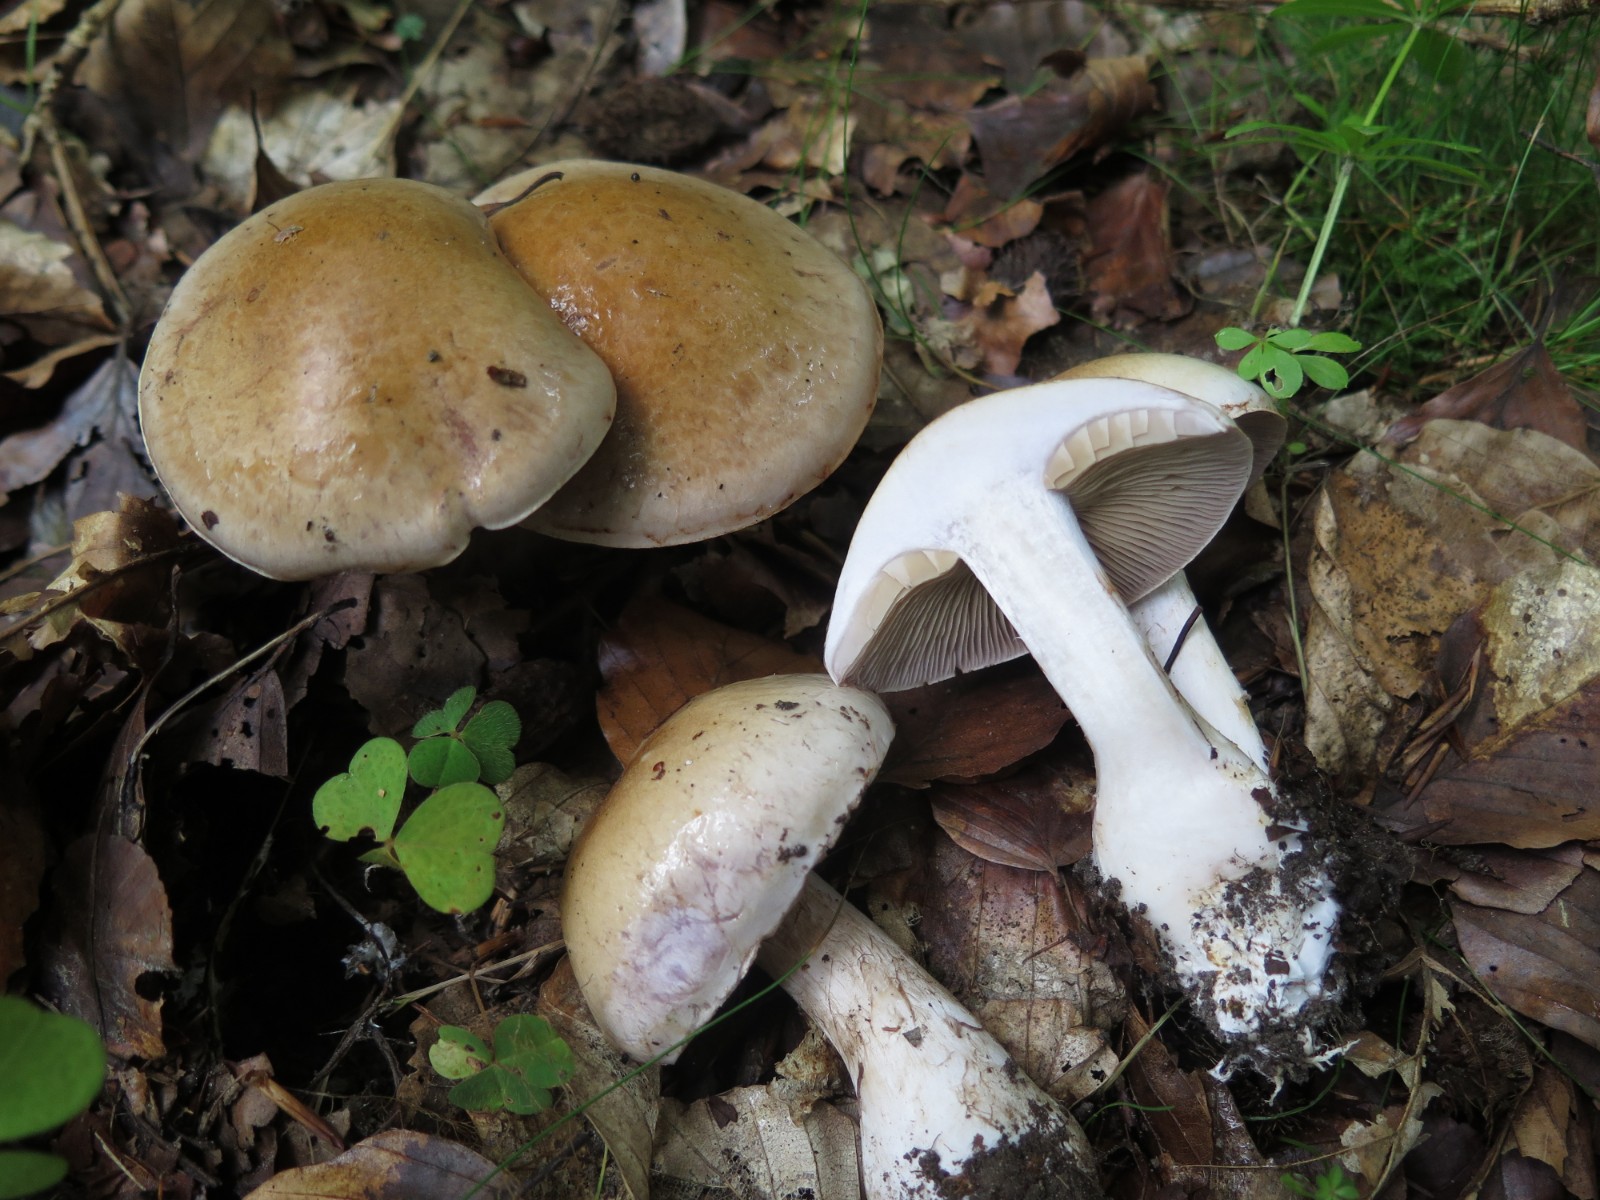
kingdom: Fungi
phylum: Basidiomycota
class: Agaricomycetes
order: Agaricales
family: Cortinariaceae
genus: Cortinarius
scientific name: Cortinarius largus
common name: violetrandet slørhat
